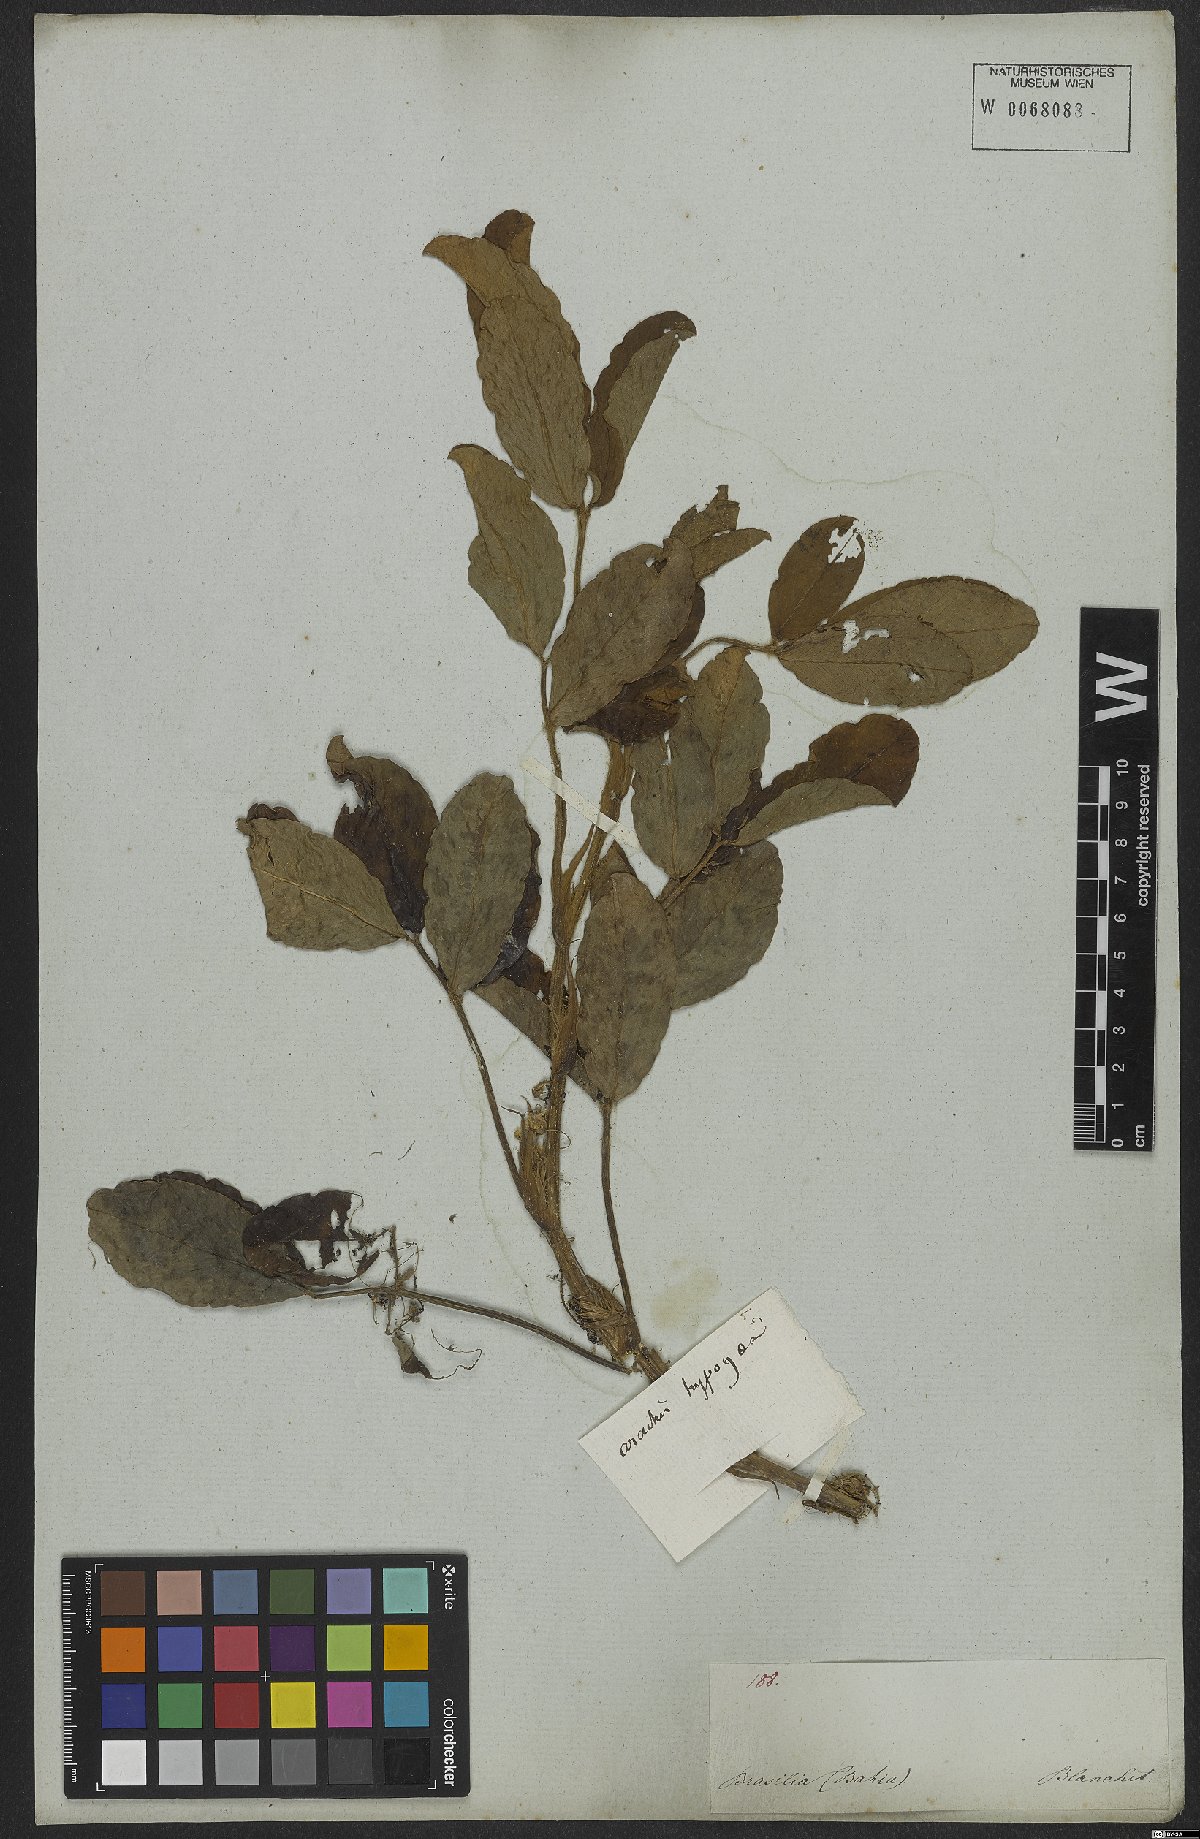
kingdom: Plantae
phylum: Tracheophyta
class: Magnoliopsida
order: Fabales
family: Fabaceae
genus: Arachis
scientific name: Arachis hypogaea
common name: Peanut
